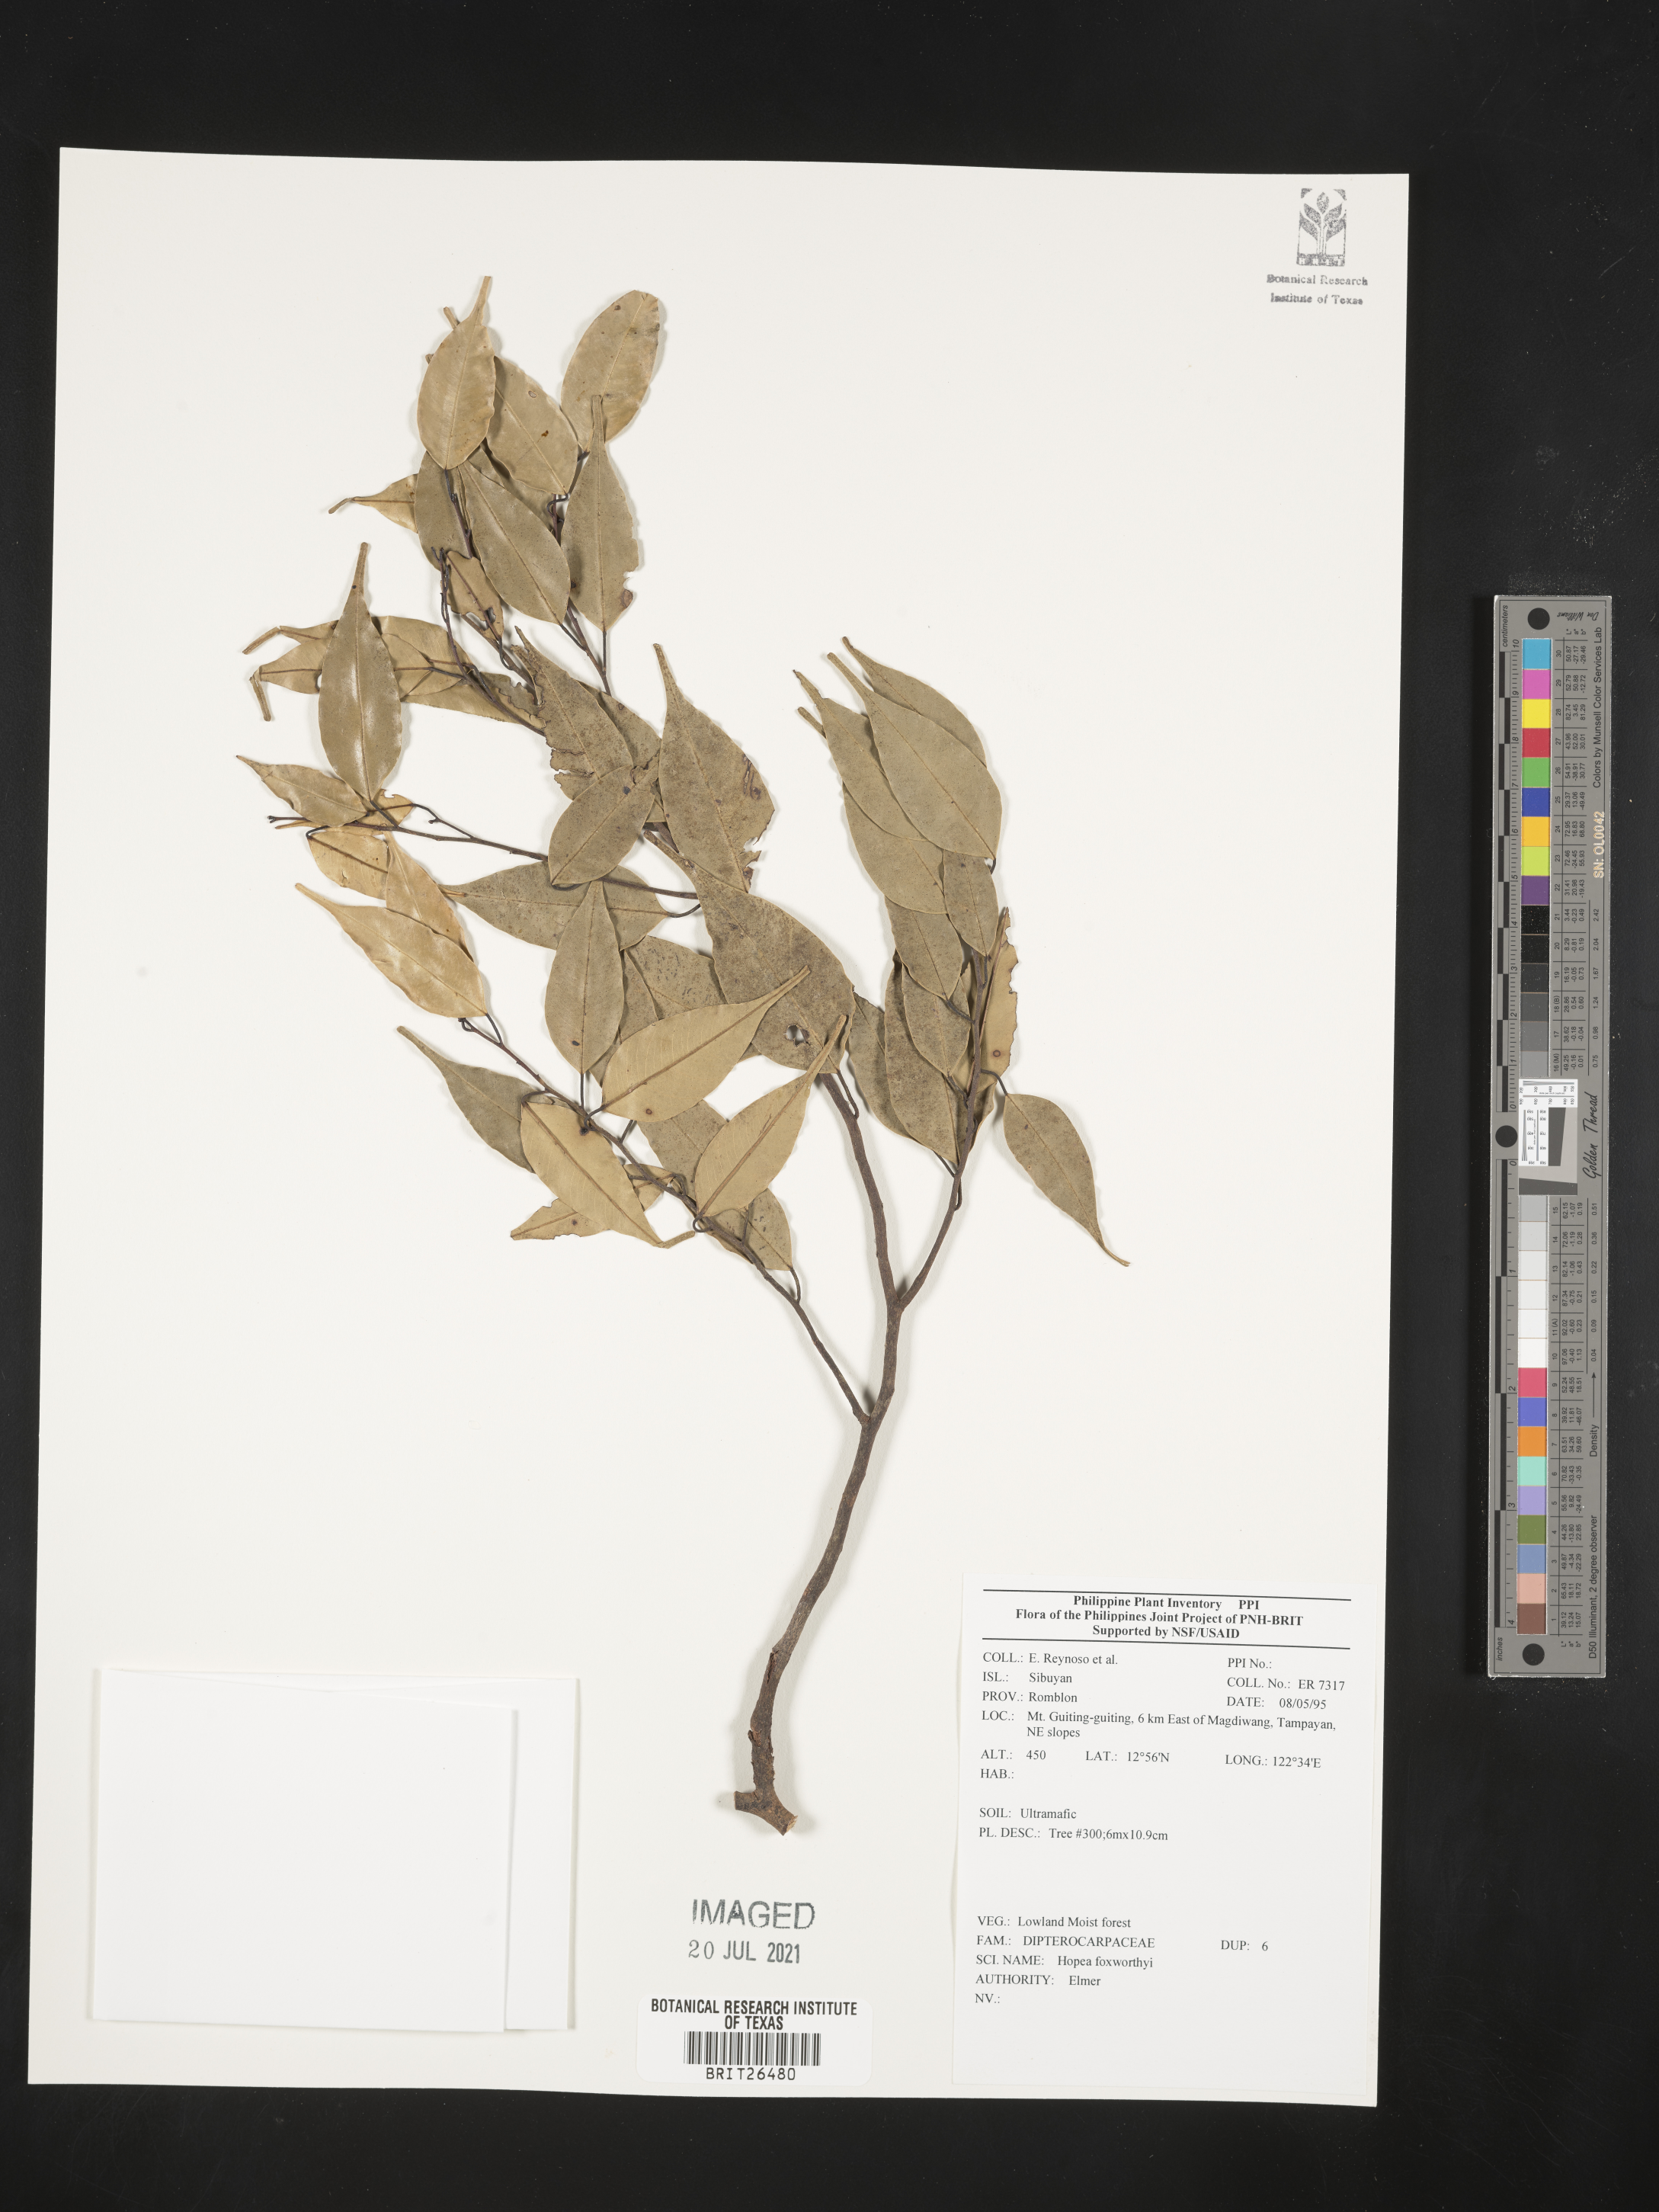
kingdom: Plantae
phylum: Tracheophyta
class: Magnoliopsida
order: Malvales
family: Dipterocarpaceae
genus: Hopea
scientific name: Hopea foxworthyi
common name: Dalingdingan
